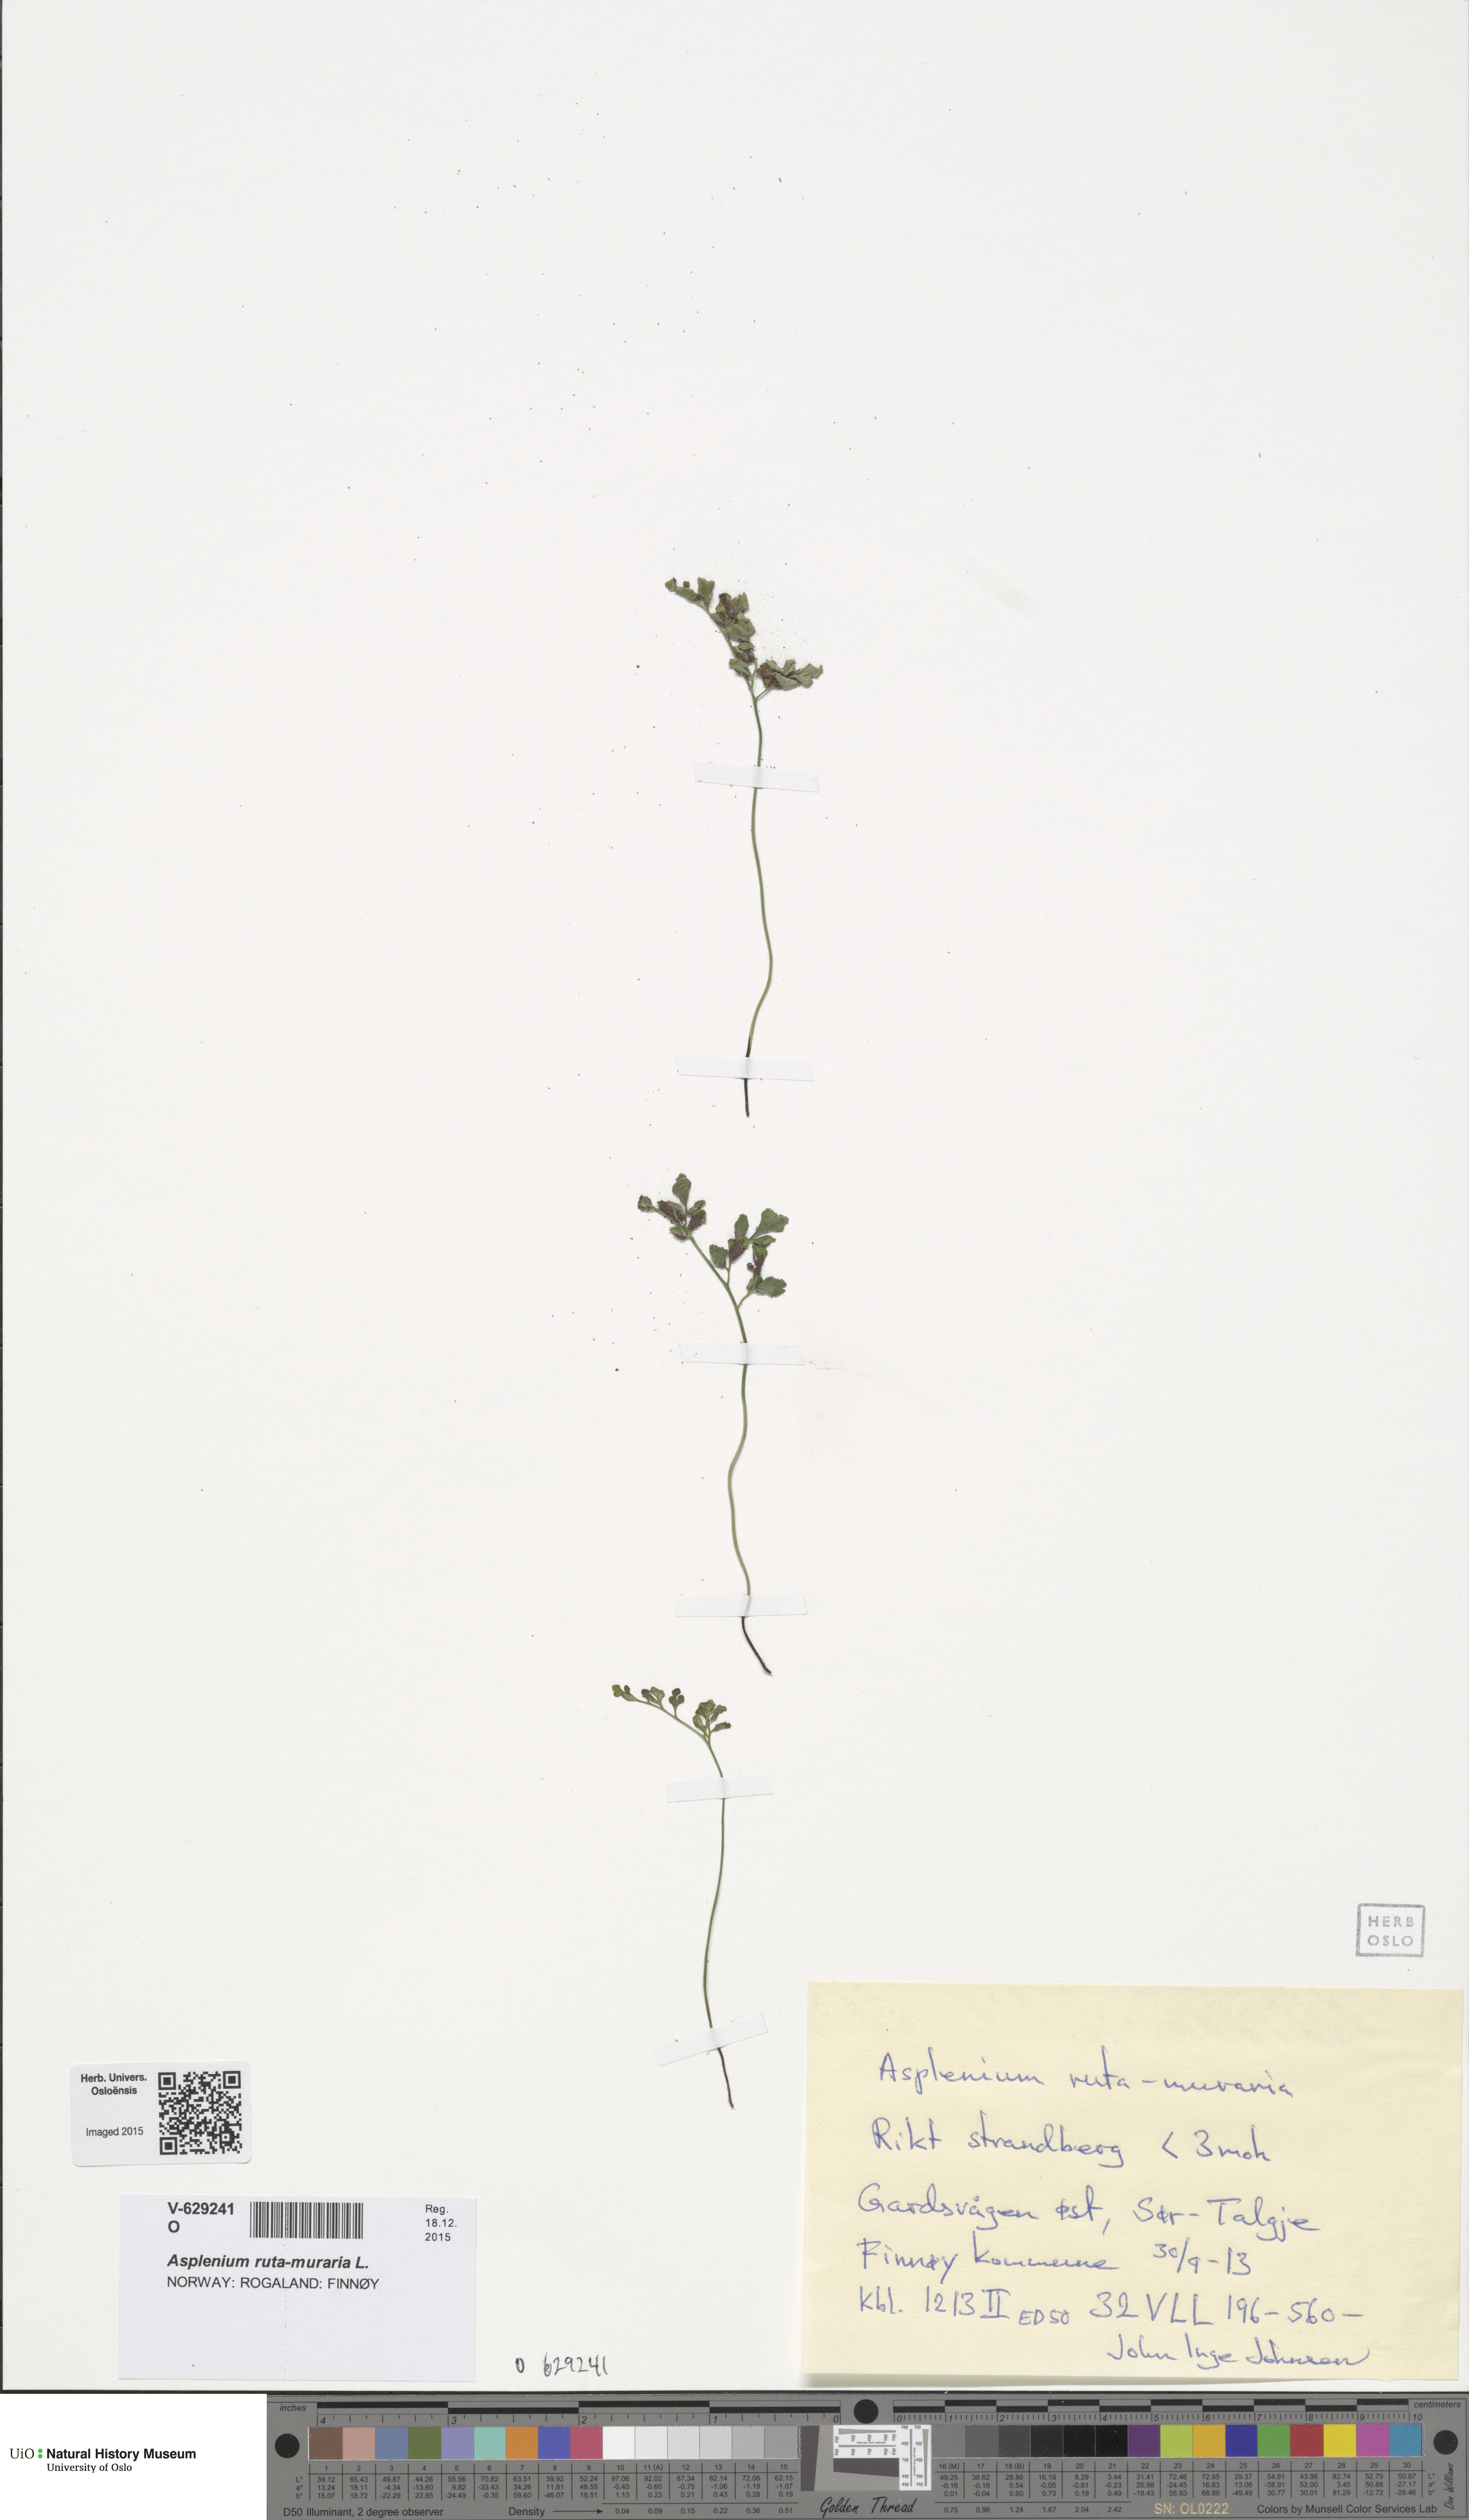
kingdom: Plantae
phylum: Tracheophyta
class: Polypodiopsida
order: Polypodiales
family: Aspleniaceae
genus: Asplenium
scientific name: Asplenium ruta-muraria
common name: Wall-rue
